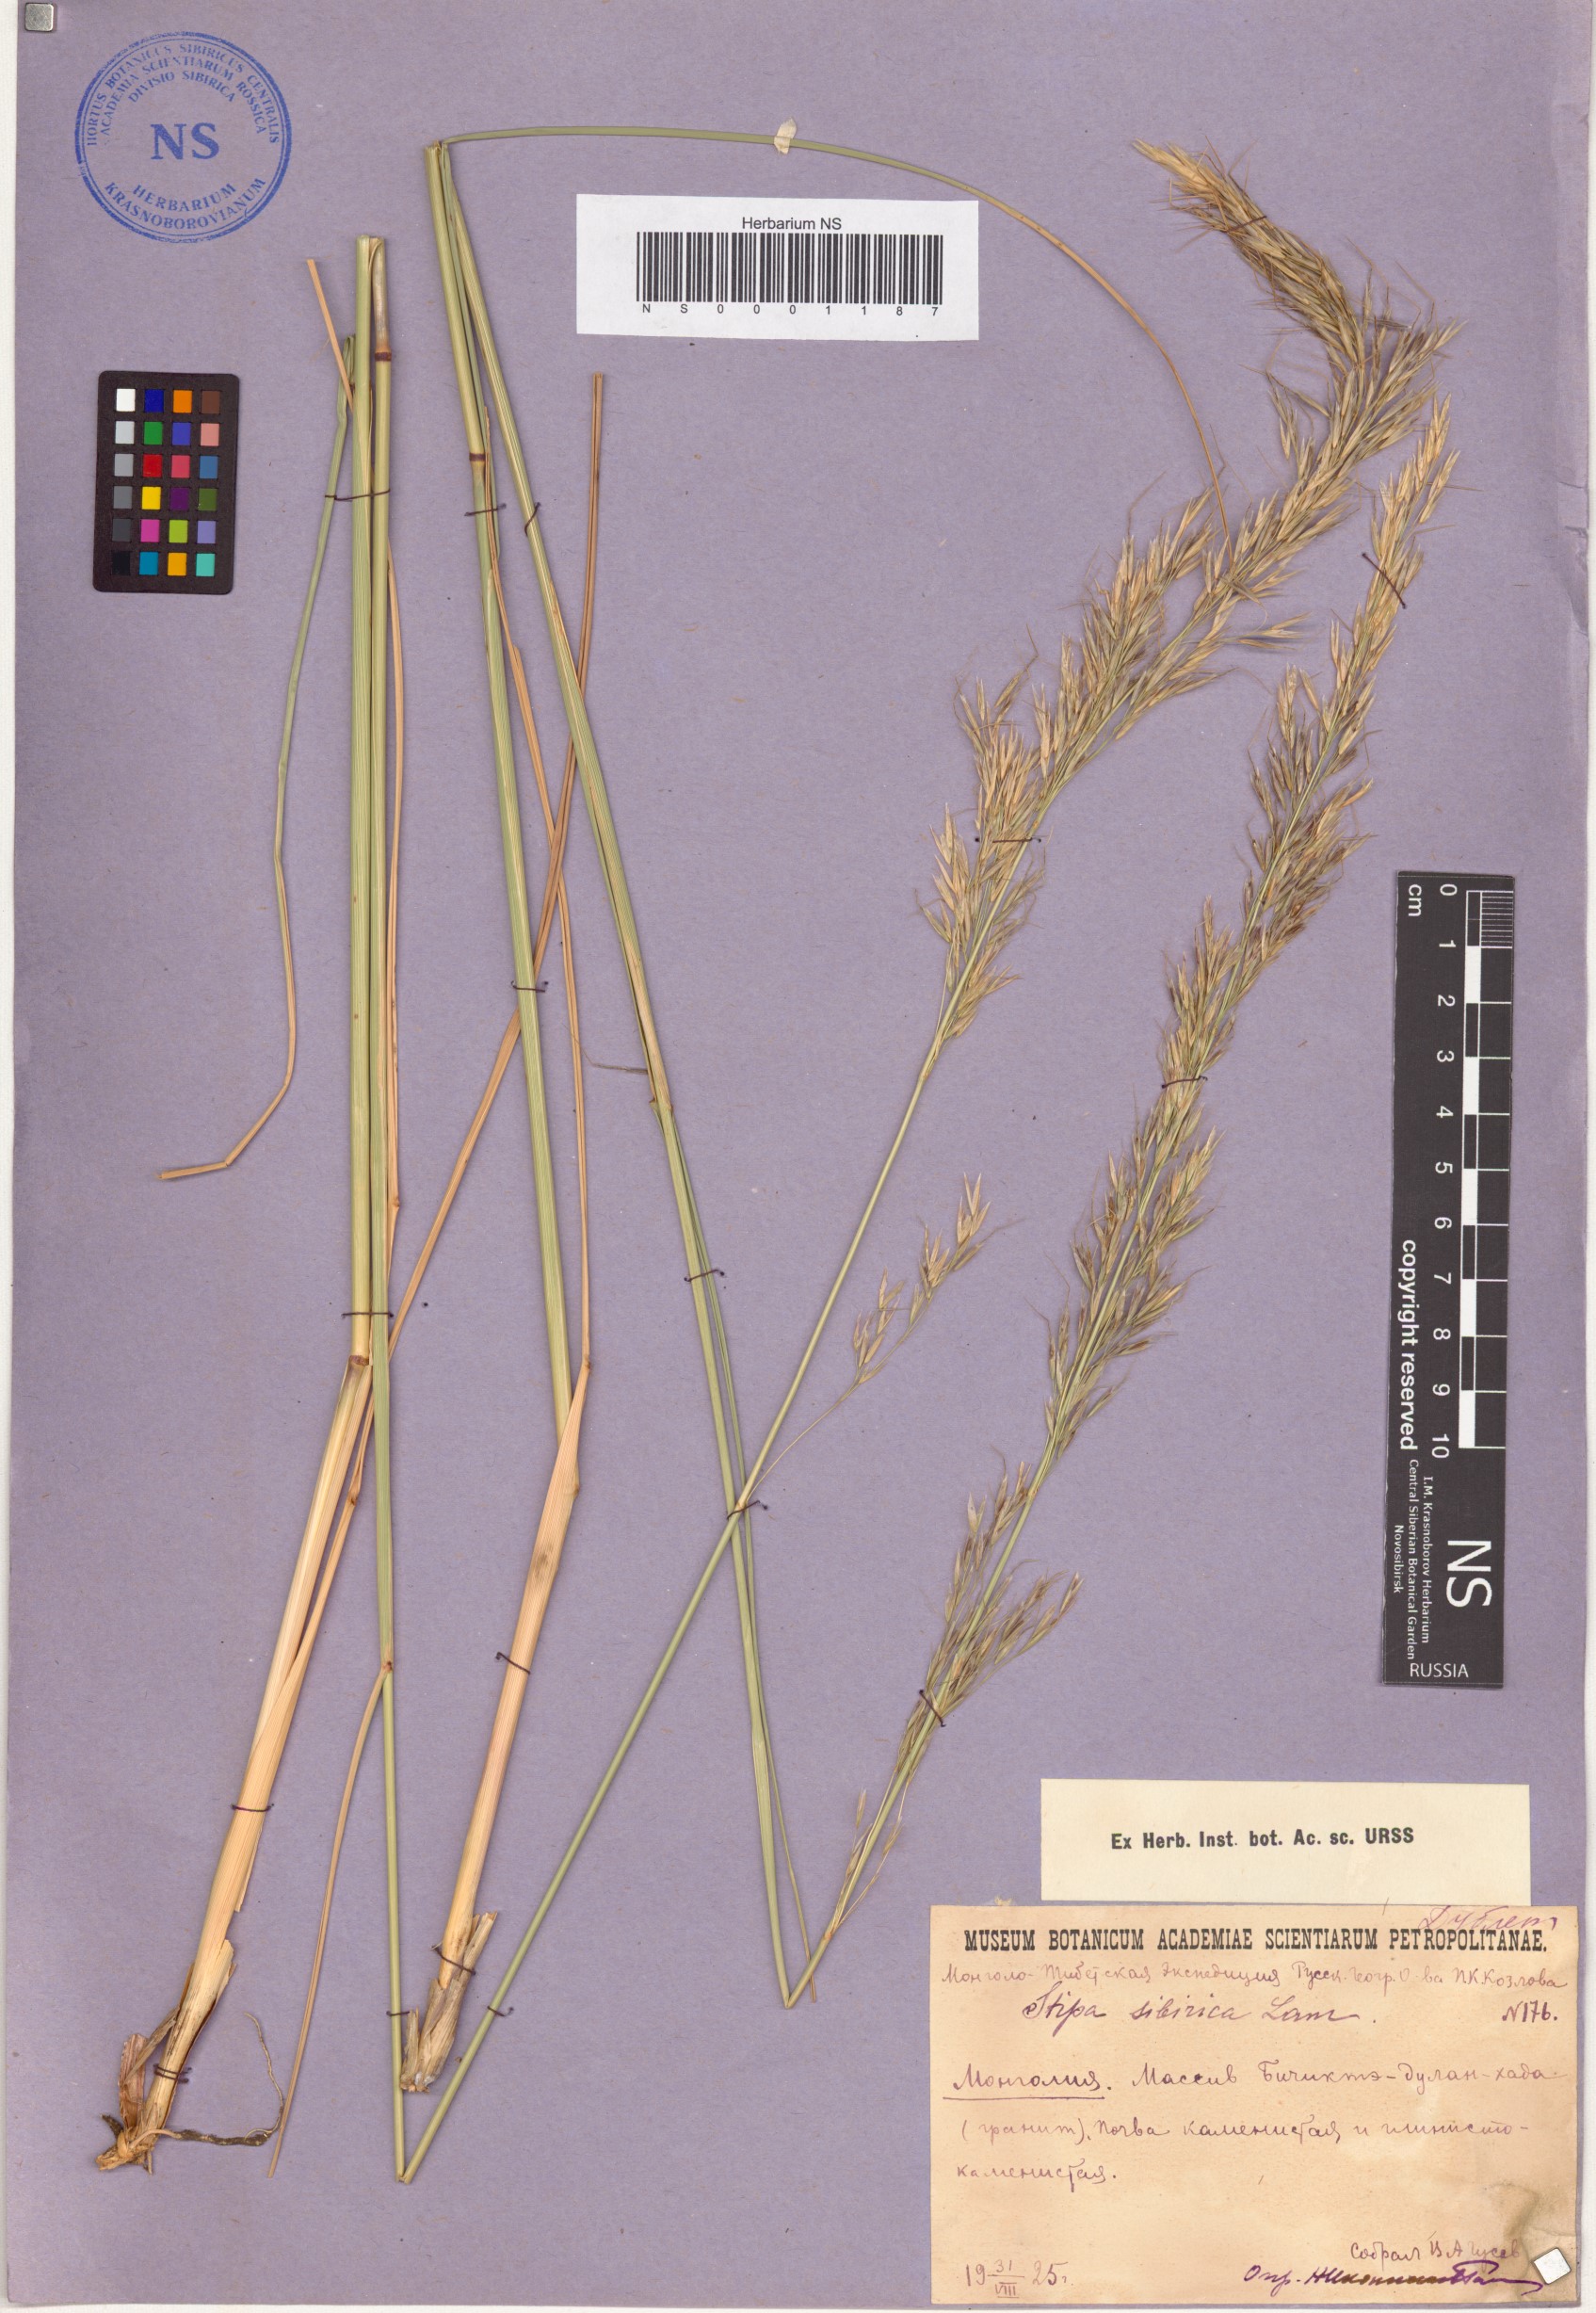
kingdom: Plantae
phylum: Tracheophyta
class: Liliopsida
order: Poales
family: Poaceae
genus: Achnatherum
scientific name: Achnatherum sibiricum
